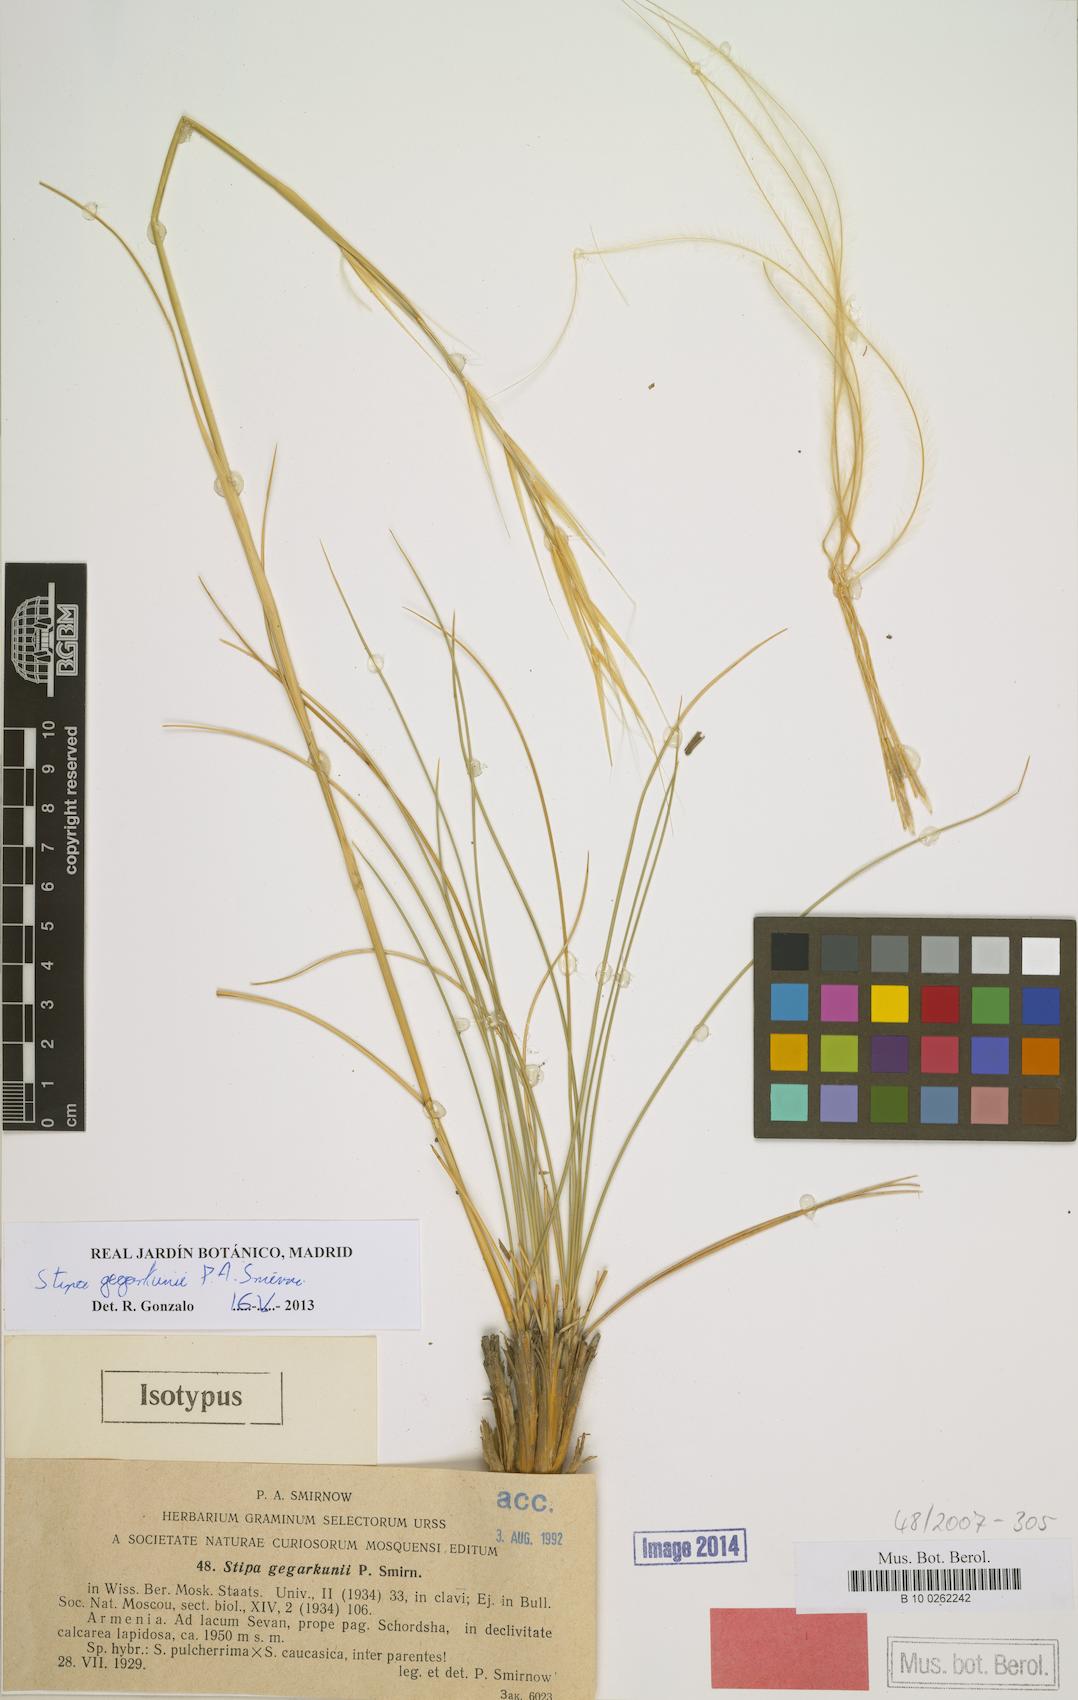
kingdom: Plantae
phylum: Tracheophyta
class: Liliopsida
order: Poales
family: Poaceae
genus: Stipa
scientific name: Stipa gegarkunii
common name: Gegarkunian feather-grass
